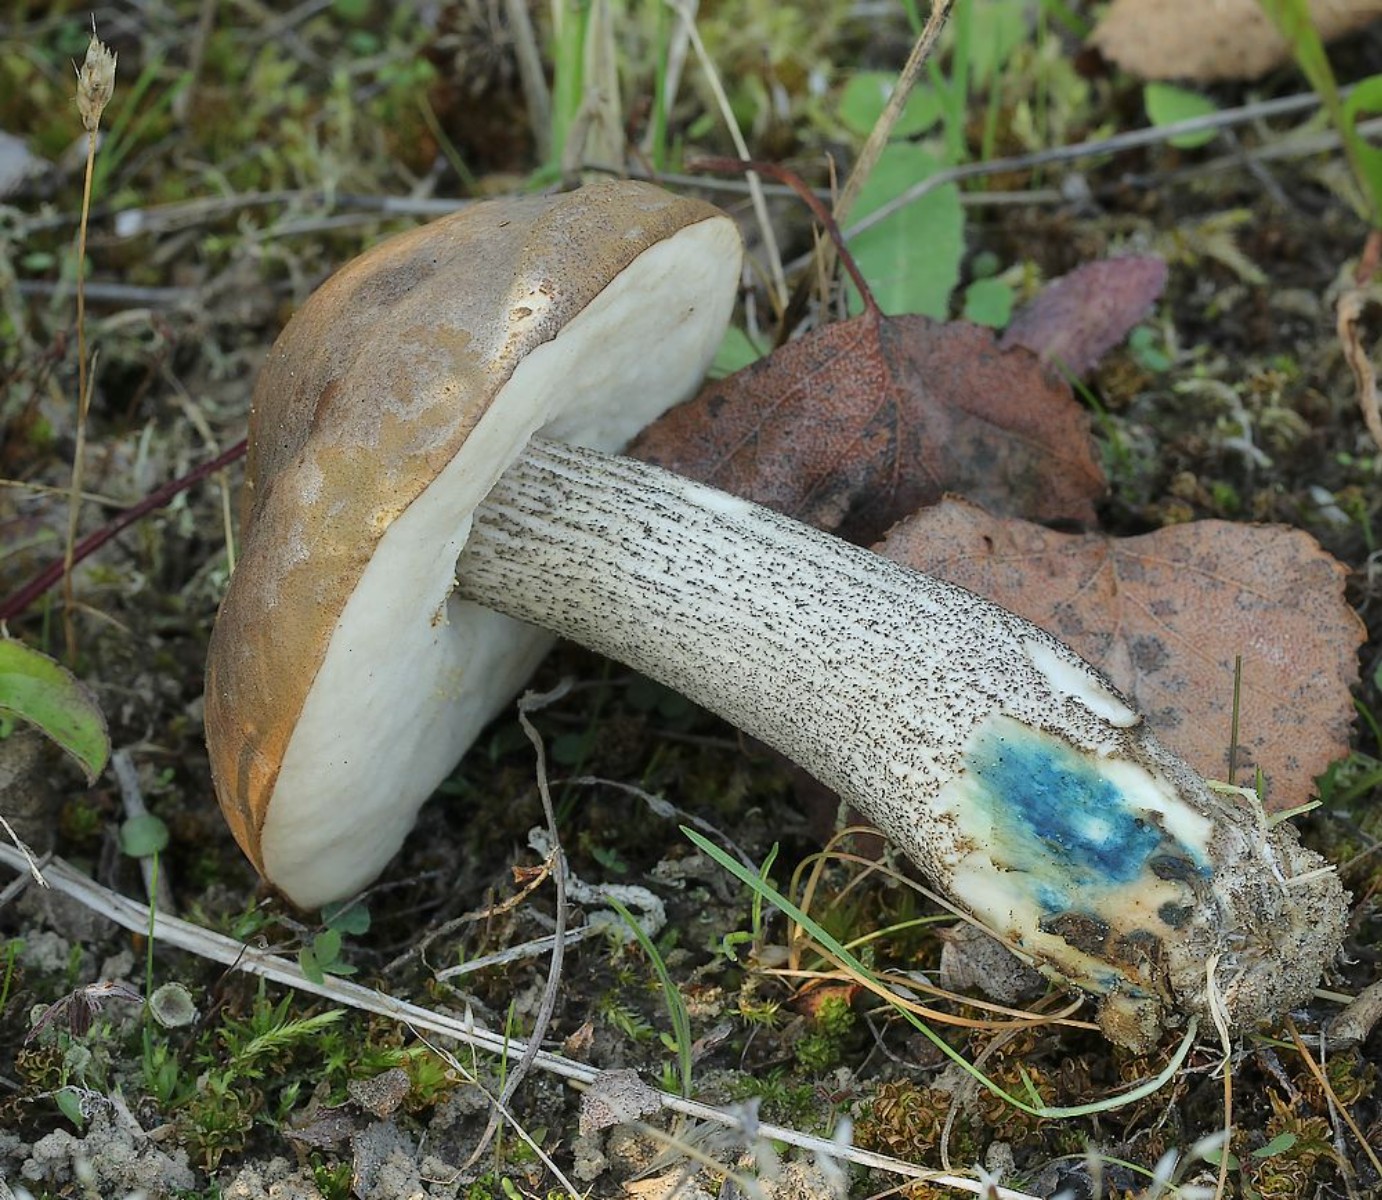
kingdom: Fungi
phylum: Basidiomycota
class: Agaricomycetes
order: Boletales
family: Boletaceae
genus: Leccinum
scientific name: Leccinum cyaneobasileucum
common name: almindelig skælrørhat
